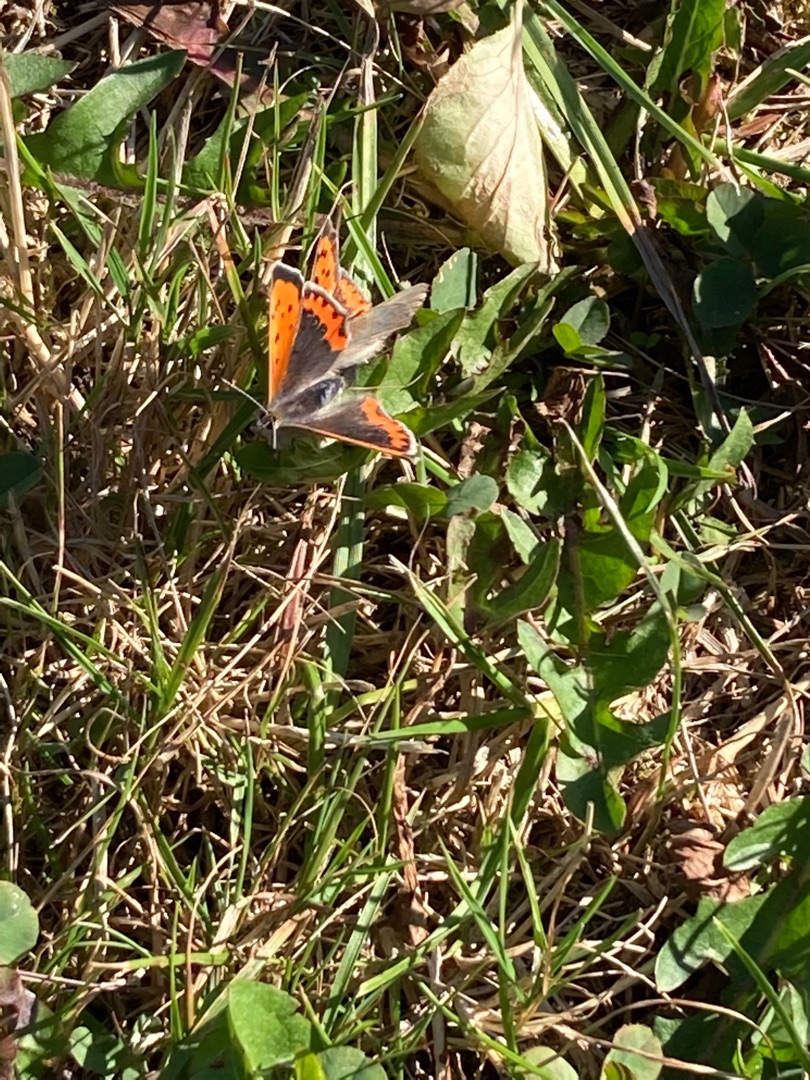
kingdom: Animalia
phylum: Arthropoda
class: Insecta
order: Lepidoptera
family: Lycaenidae
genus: Lycaena
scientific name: Lycaena phlaeas
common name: Lille ildfugl
